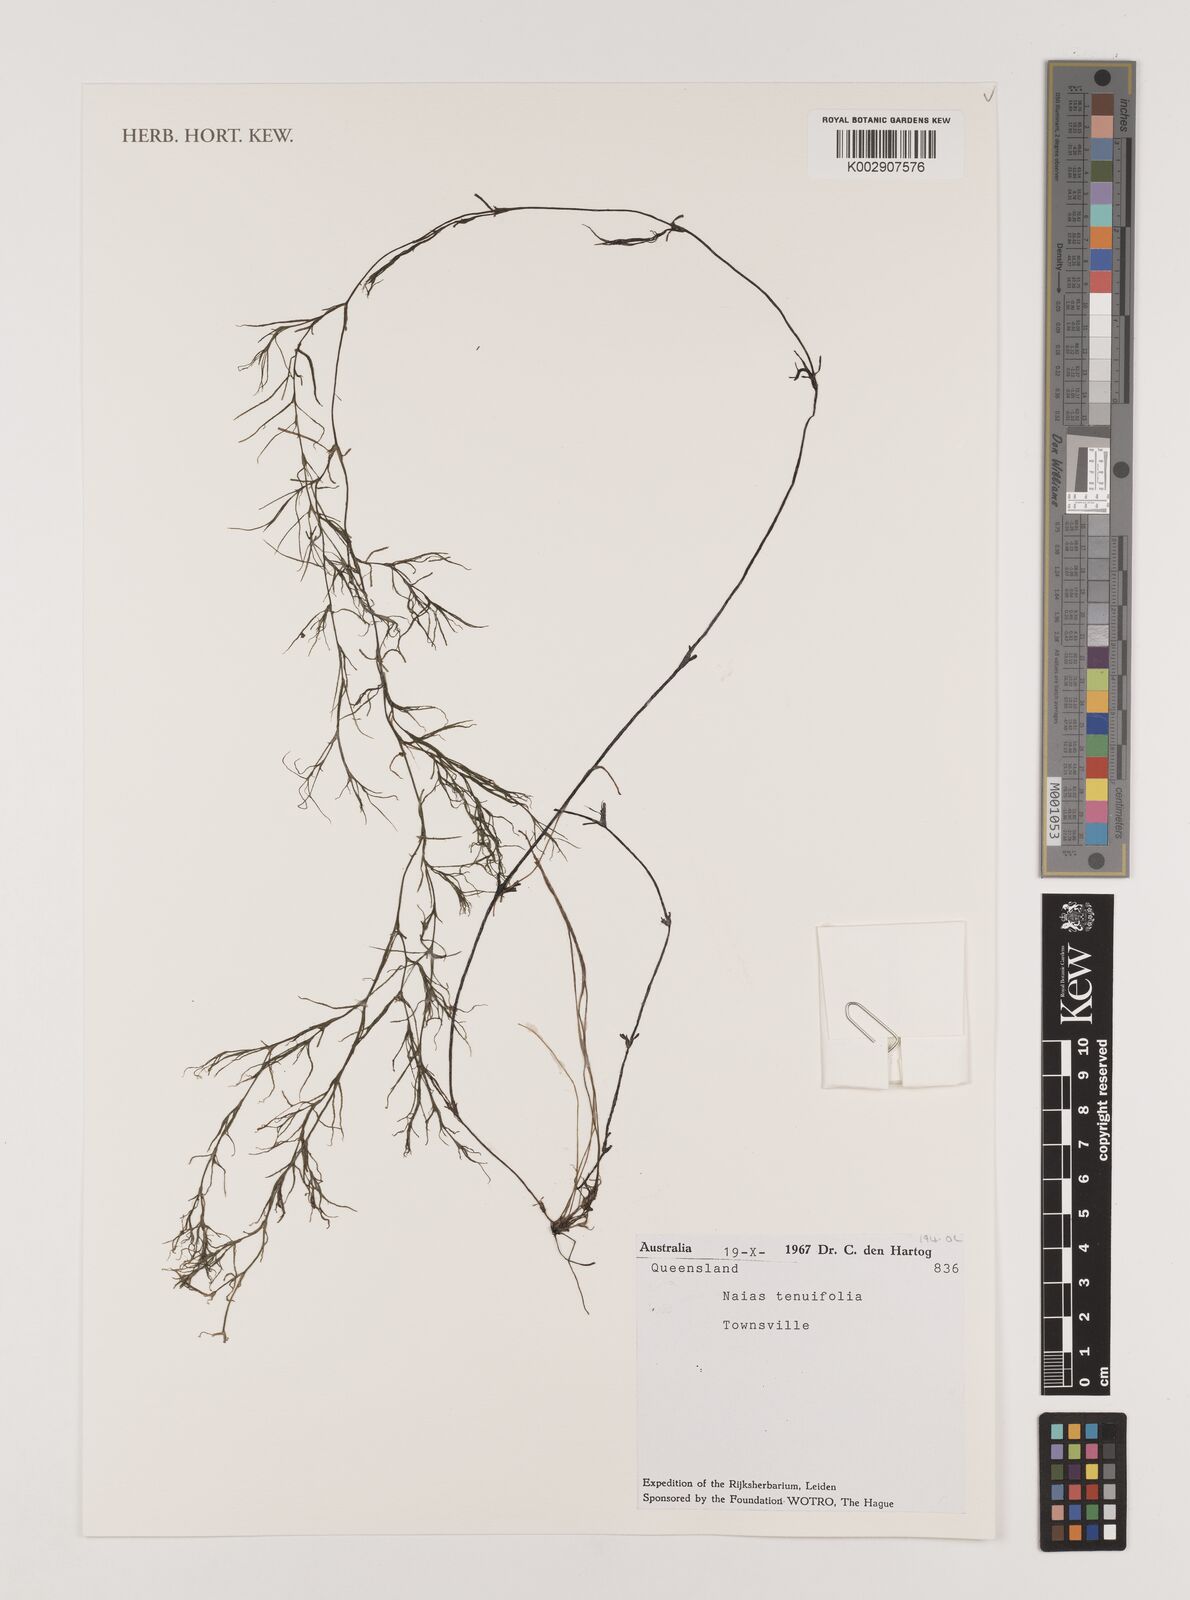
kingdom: Plantae
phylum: Tracheophyta
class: Liliopsida
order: Alismatales
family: Hydrocharitaceae
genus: Najas
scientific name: Najas tenuifolia
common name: Thin-leaved naiad
